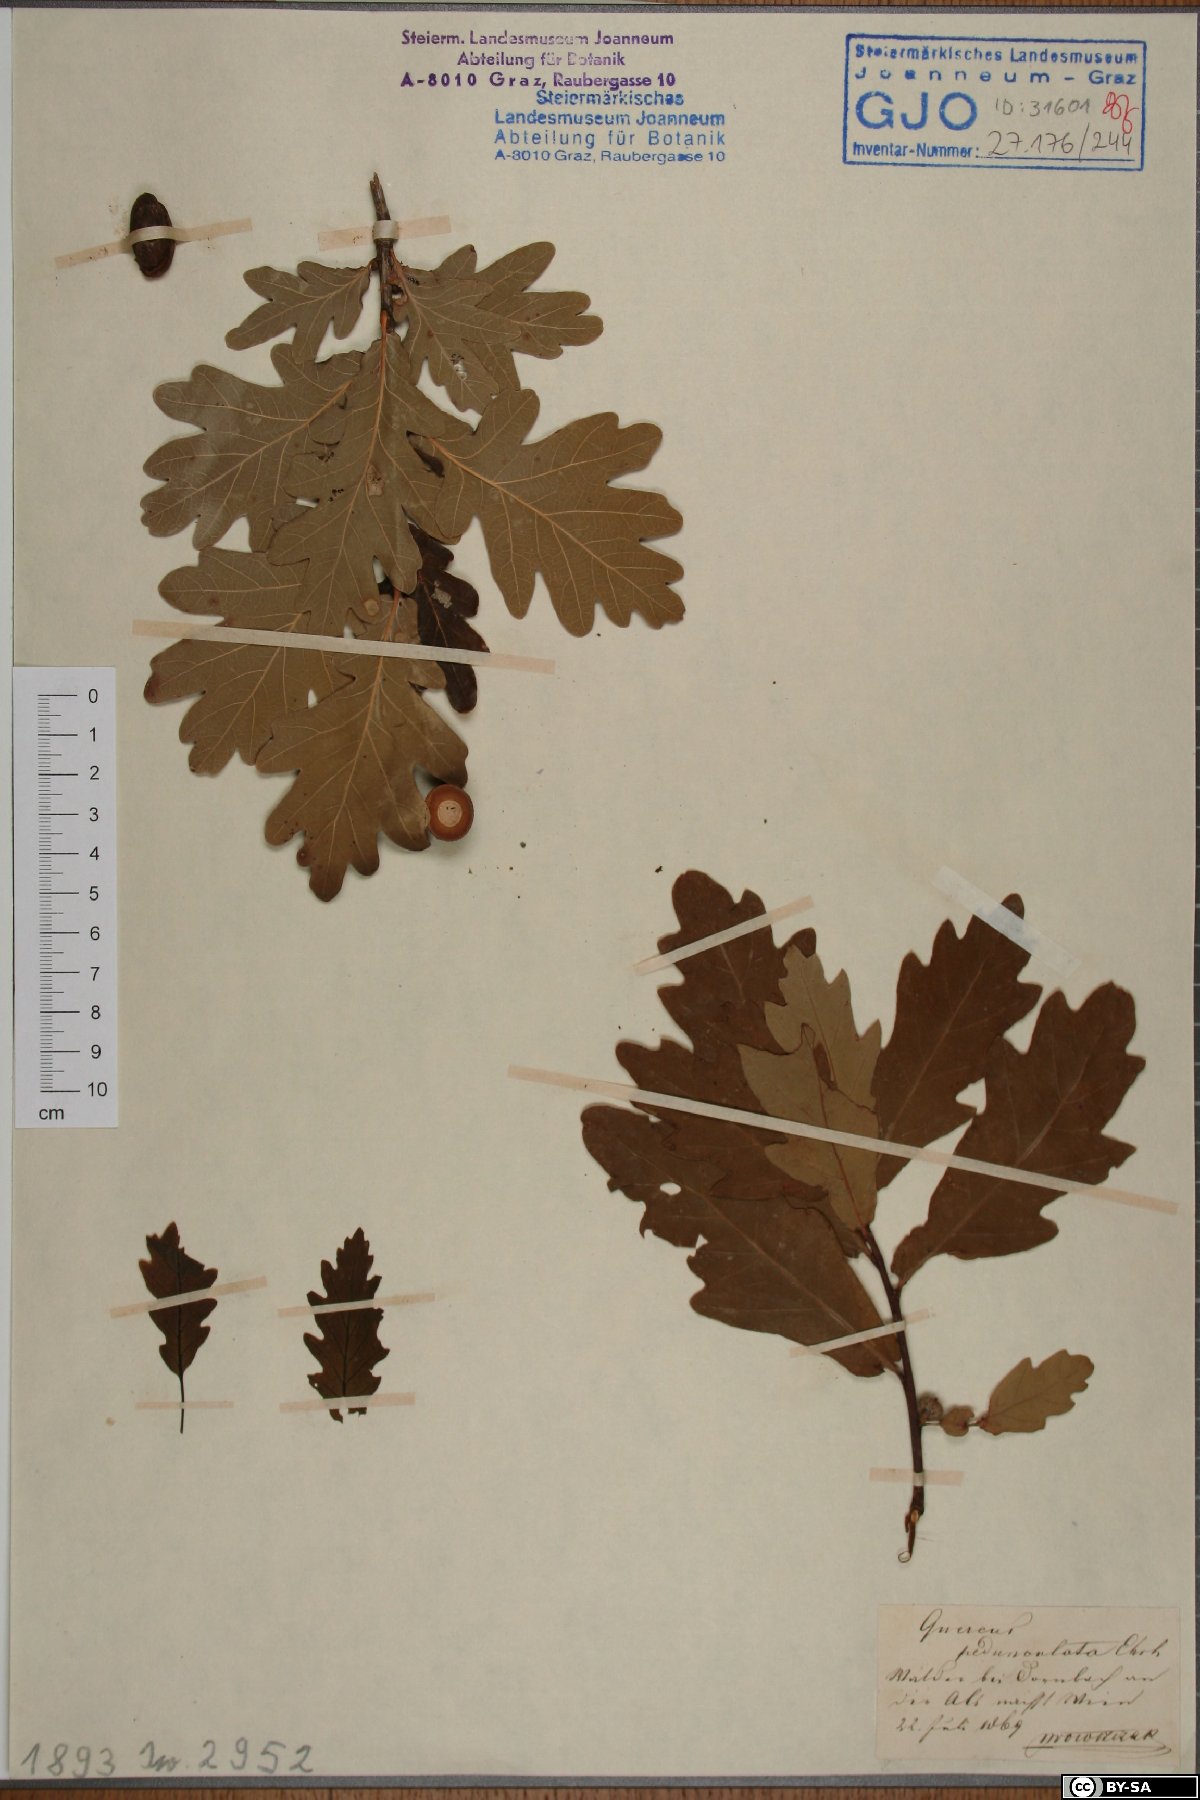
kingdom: Plantae
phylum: Tracheophyta
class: Magnoliopsida
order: Fagales
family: Fagaceae
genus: Quercus
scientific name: Quercus robur
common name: Pedunculate oak
